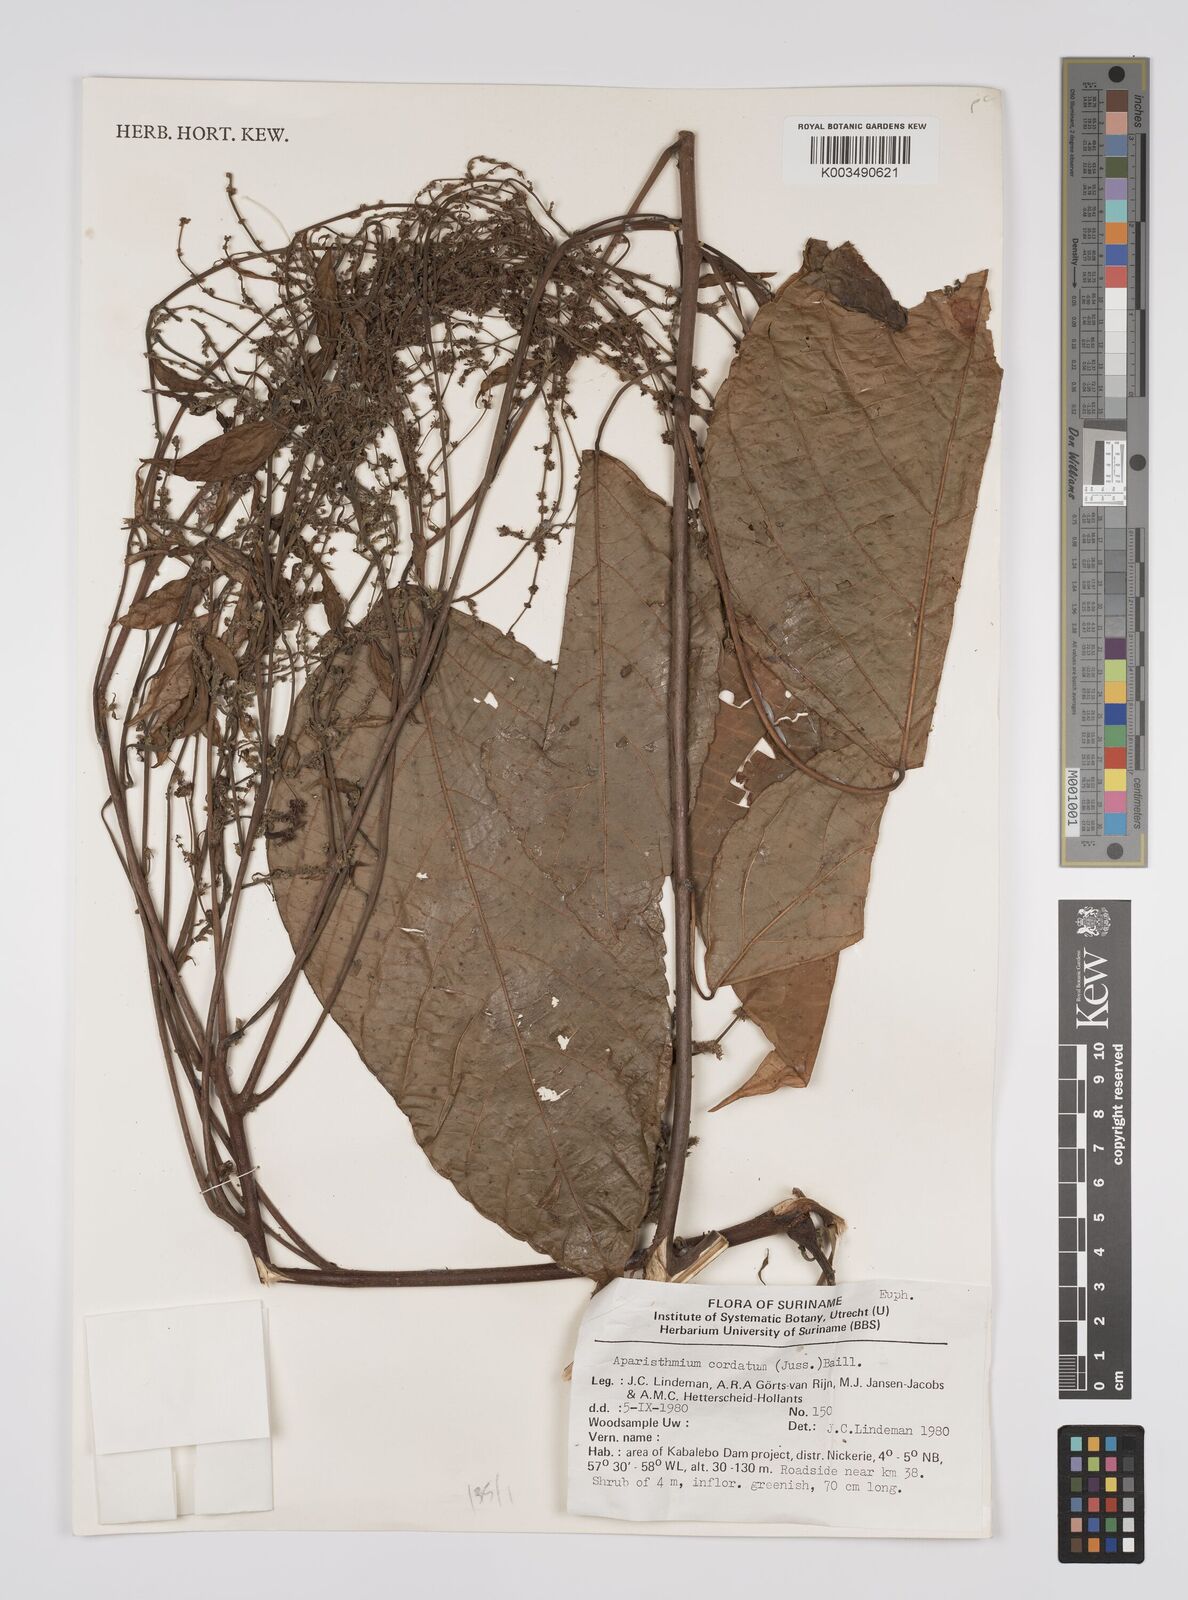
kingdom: Plantae
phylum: Tracheophyta
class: Magnoliopsida
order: Malpighiales
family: Euphorbiaceae
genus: Aparisthmium
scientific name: Aparisthmium cordatum
